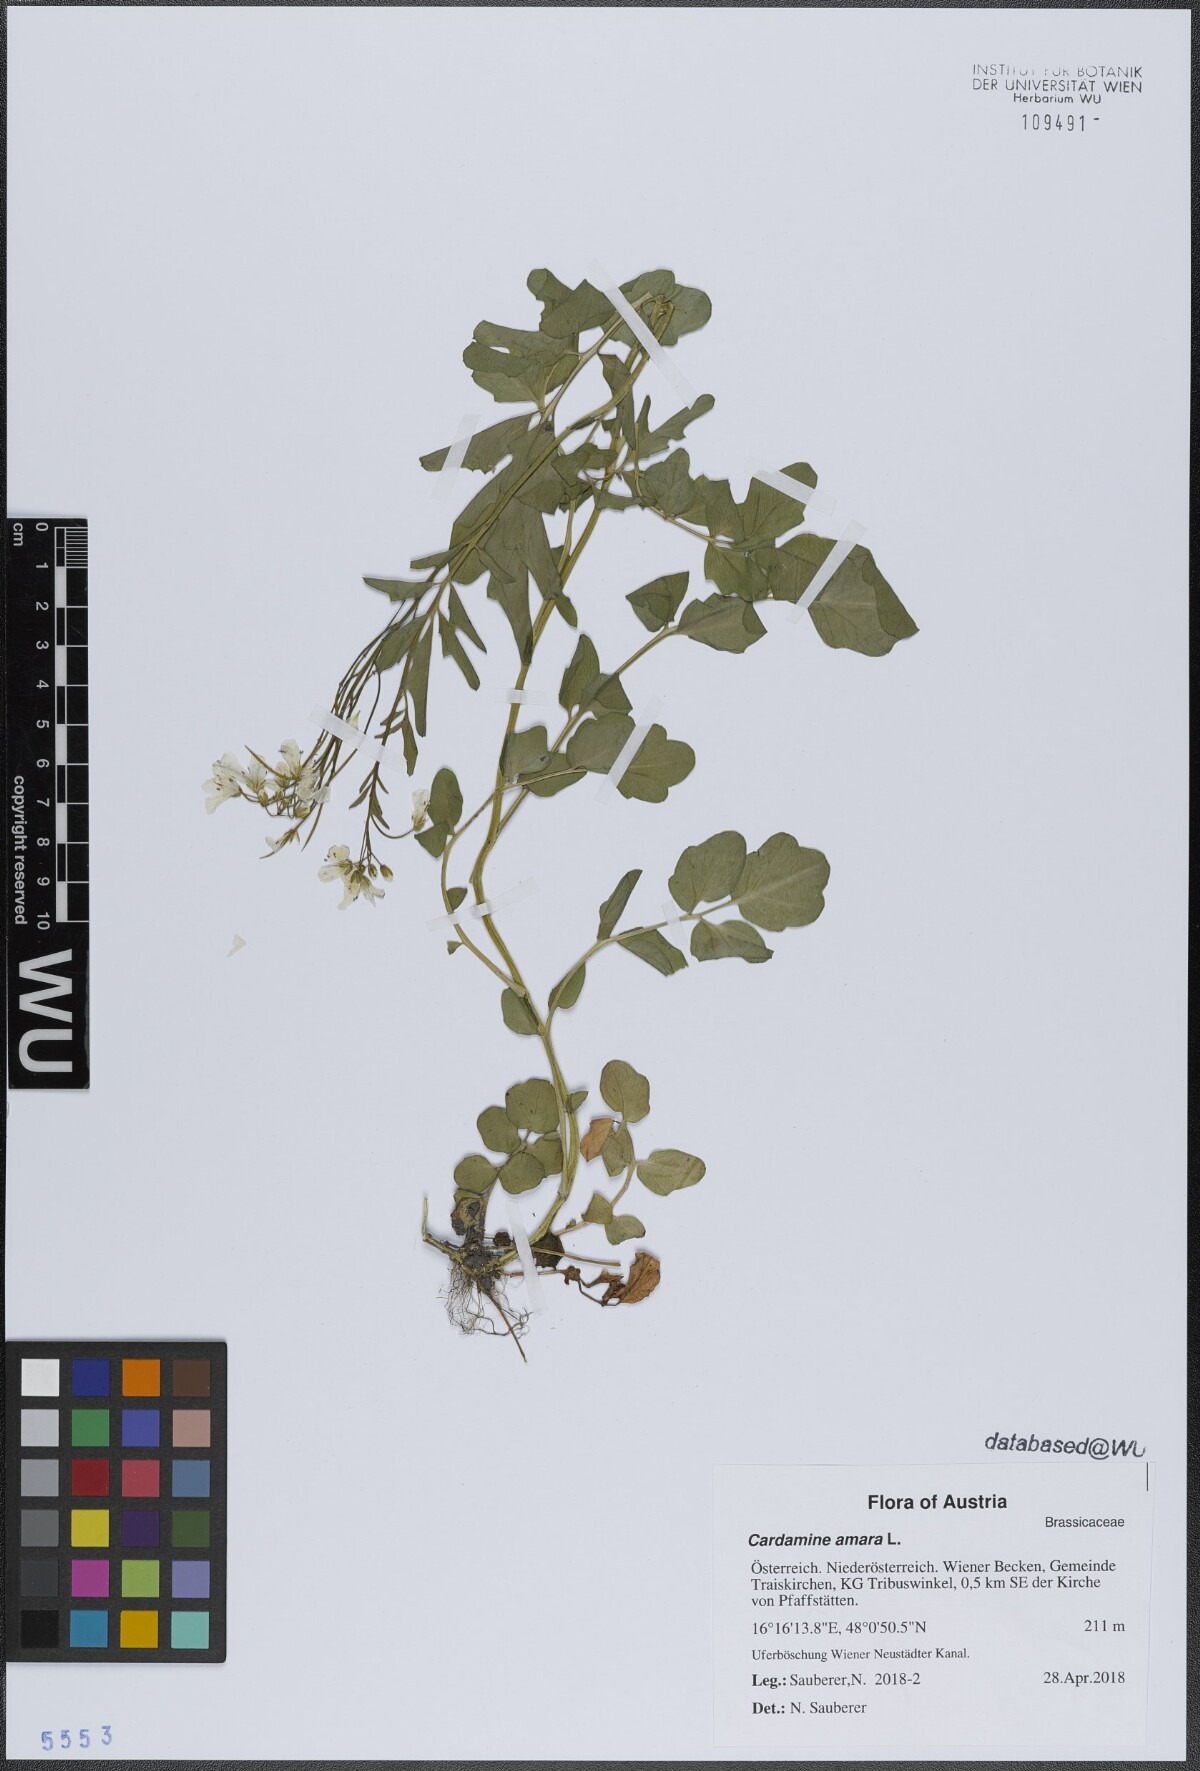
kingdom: Plantae
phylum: Tracheophyta
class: Magnoliopsida
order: Brassicales
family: Brassicaceae
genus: Cardamine
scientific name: Cardamine amara
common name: Large bitter-cress
